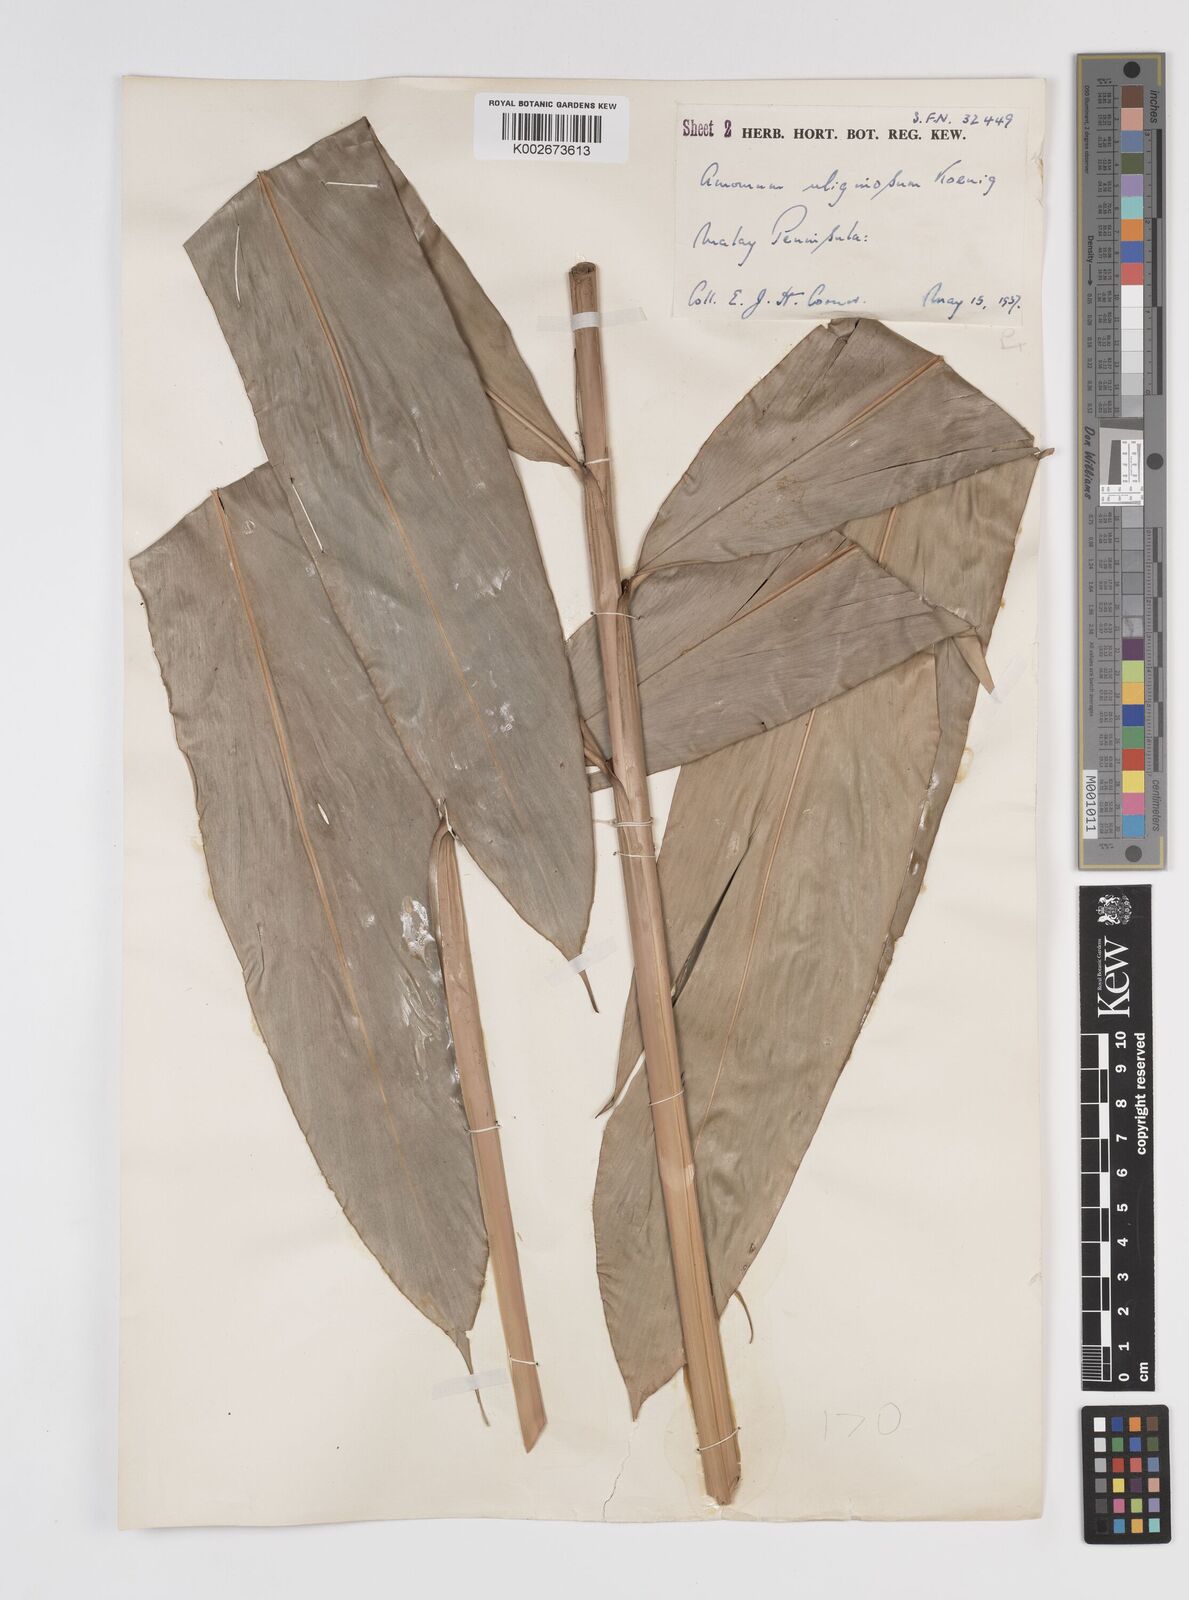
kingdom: Plantae
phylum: Tracheophyta
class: Liliopsida
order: Zingiberales
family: Zingiberaceae
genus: Wurfbainia
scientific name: Wurfbainia uliginosa
